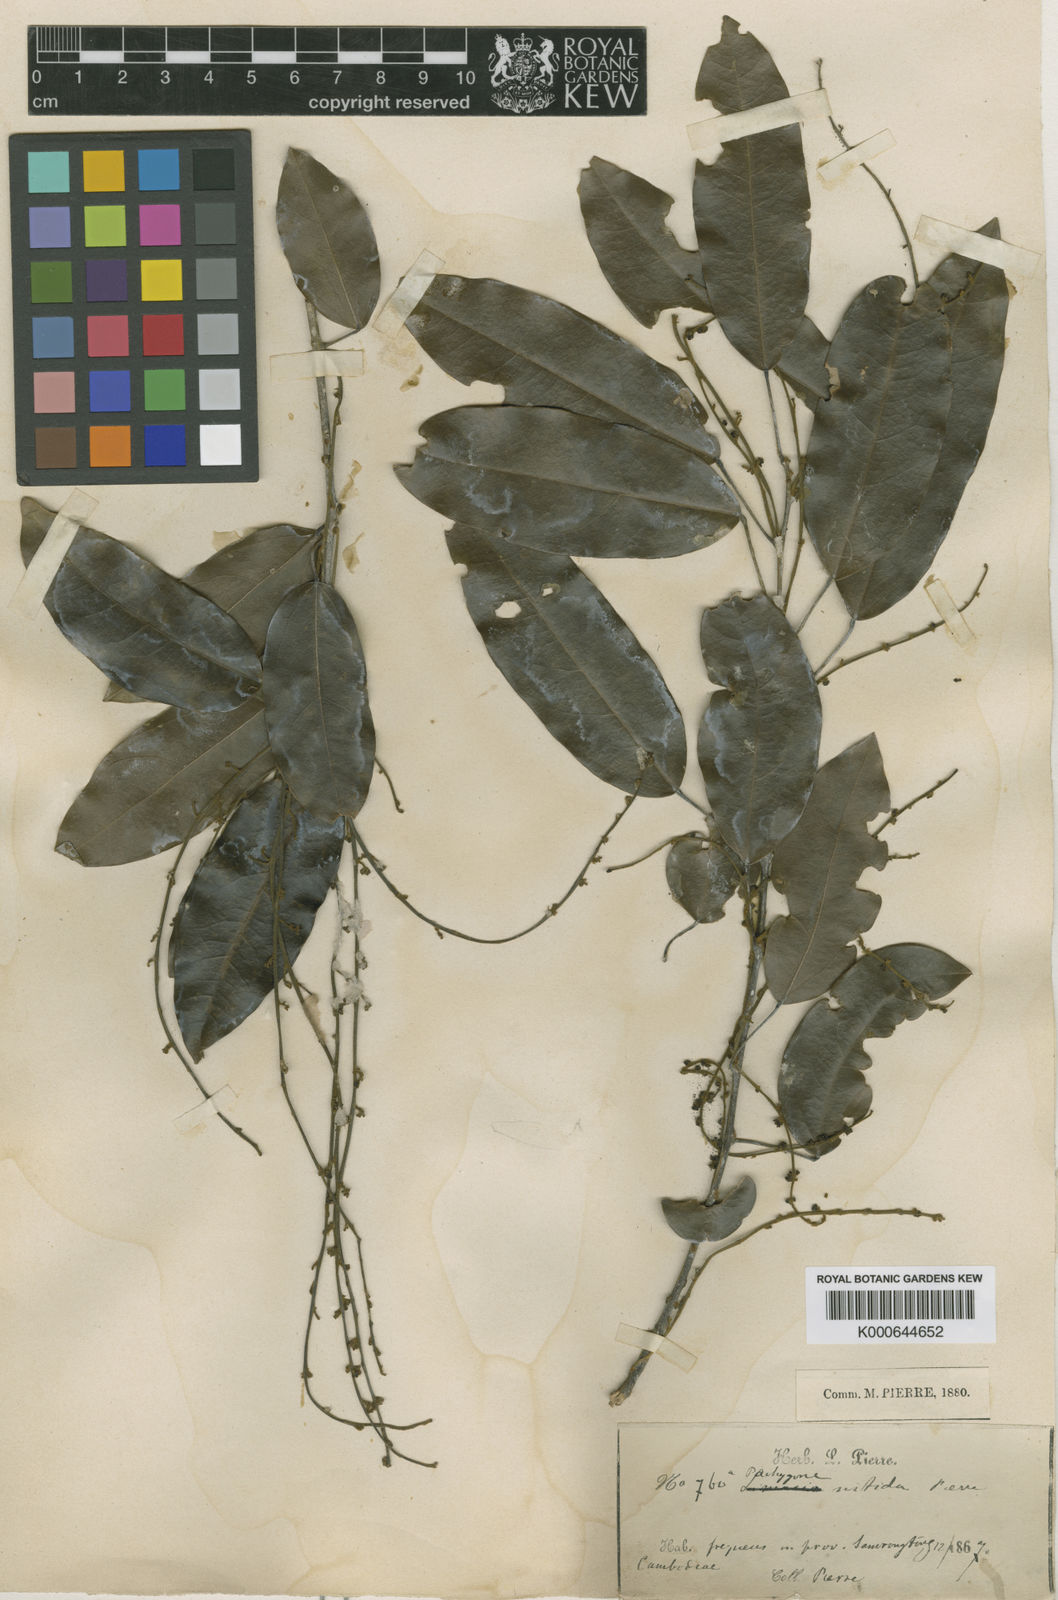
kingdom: Plantae
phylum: Tracheophyta
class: Magnoliopsida
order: Ranunculales
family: Menispermaceae
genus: Pachygone
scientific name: Pachygone odorifera
